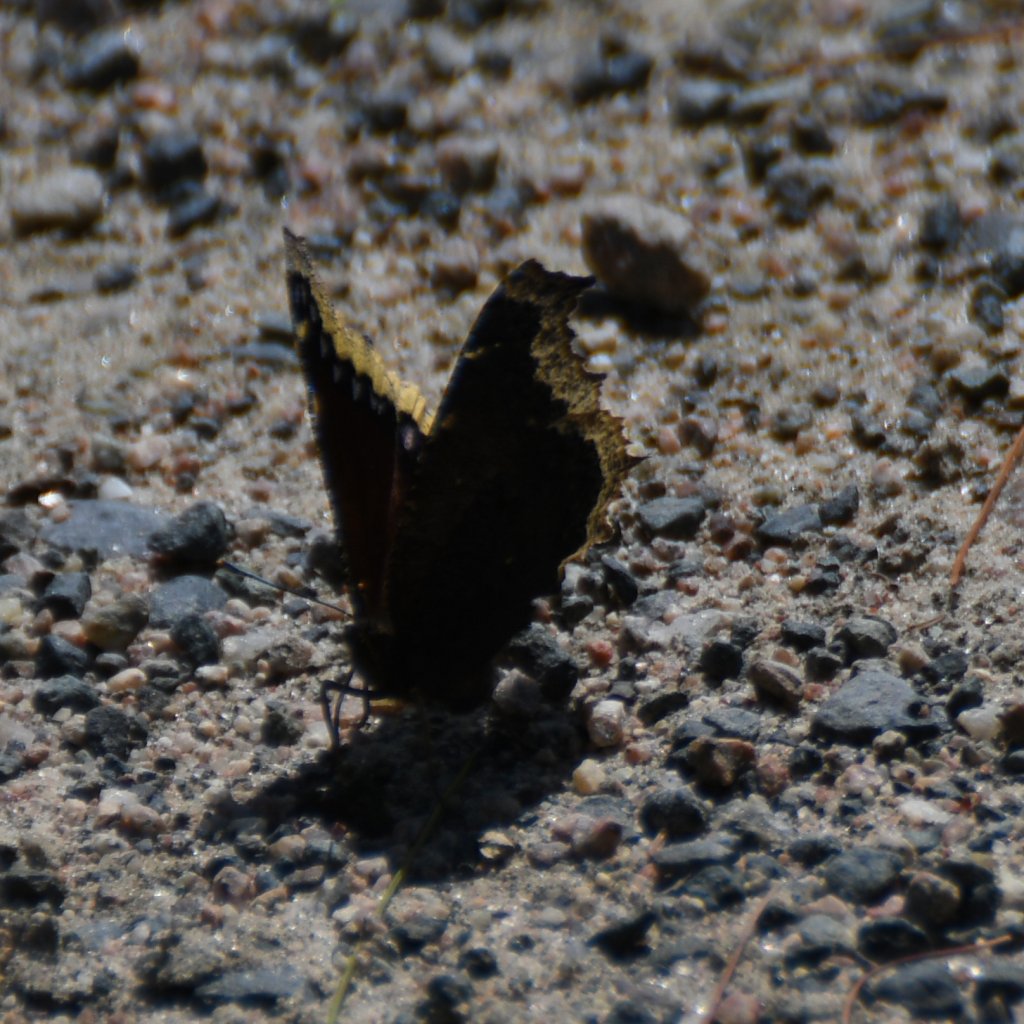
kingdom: Animalia
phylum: Arthropoda
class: Insecta
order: Lepidoptera
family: Nymphalidae
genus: Nymphalis
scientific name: Nymphalis antiopa
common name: Mourning Cloak
